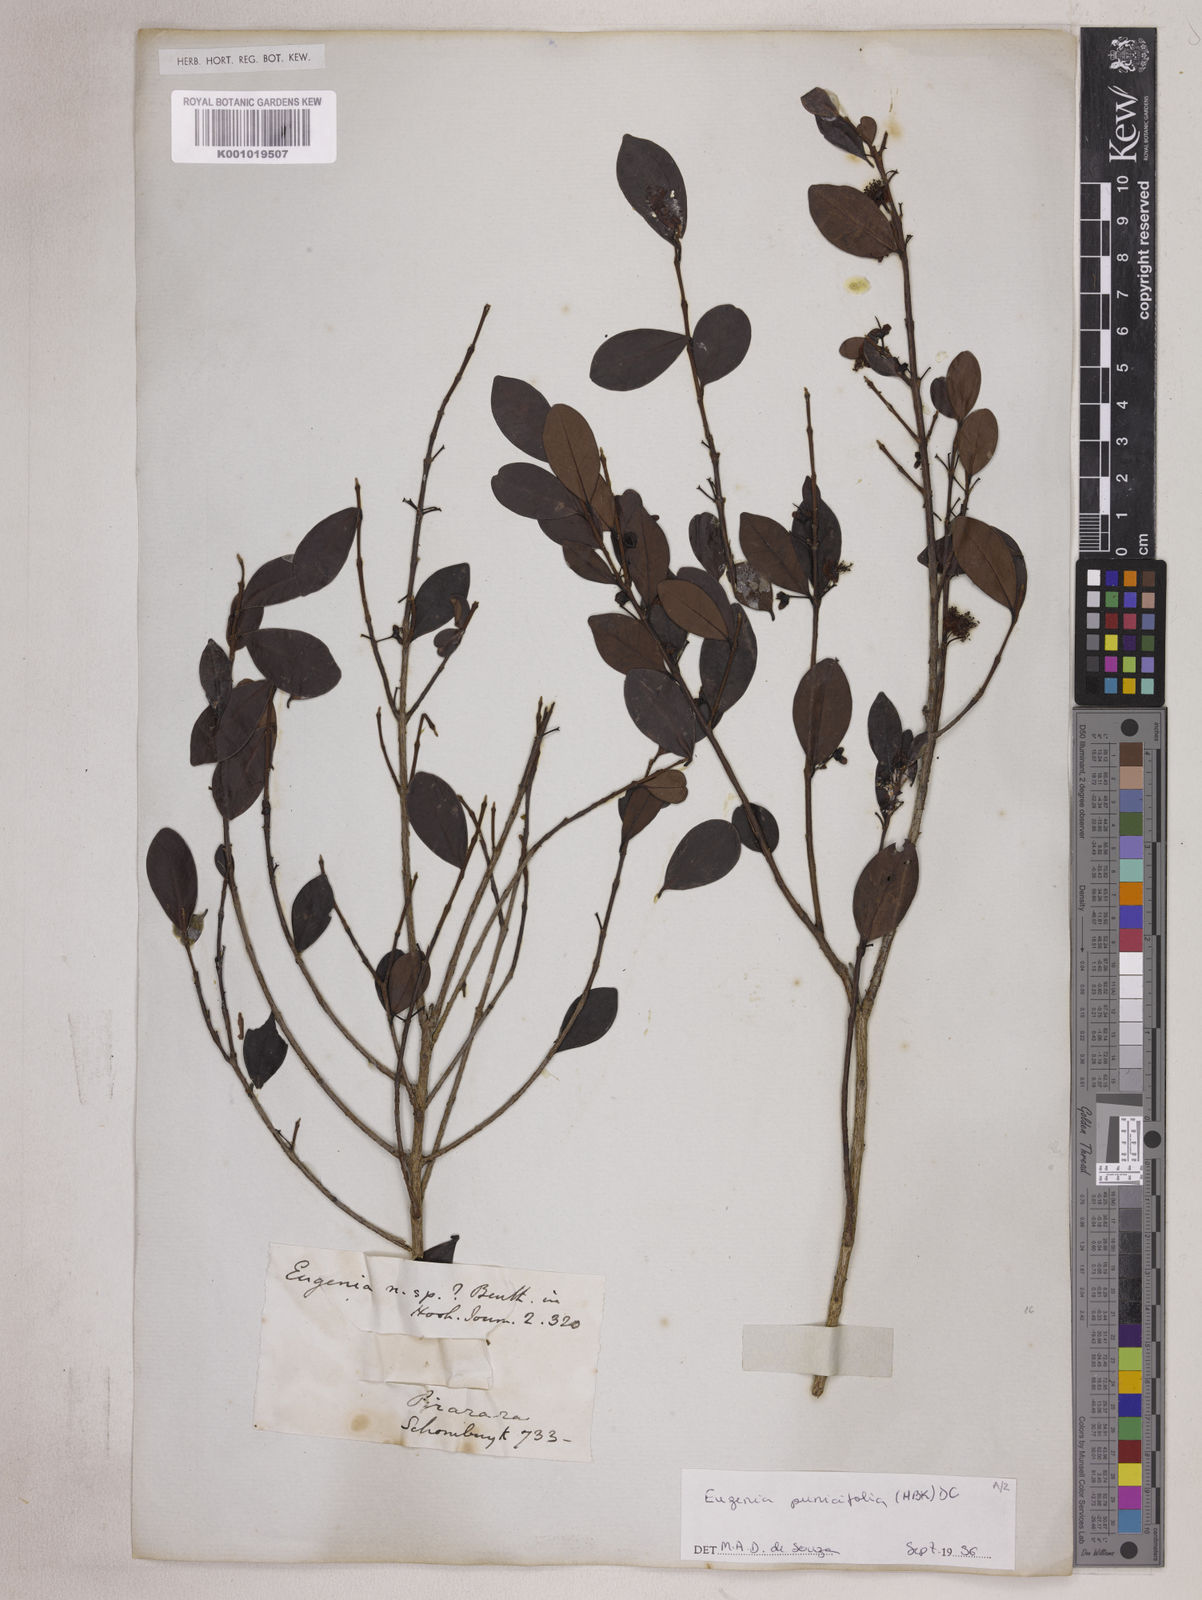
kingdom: Plantae
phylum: Tracheophyta
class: Magnoliopsida
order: Myrtales
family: Myrtaceae
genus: Eugenia
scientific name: Eugenia punicifolia
